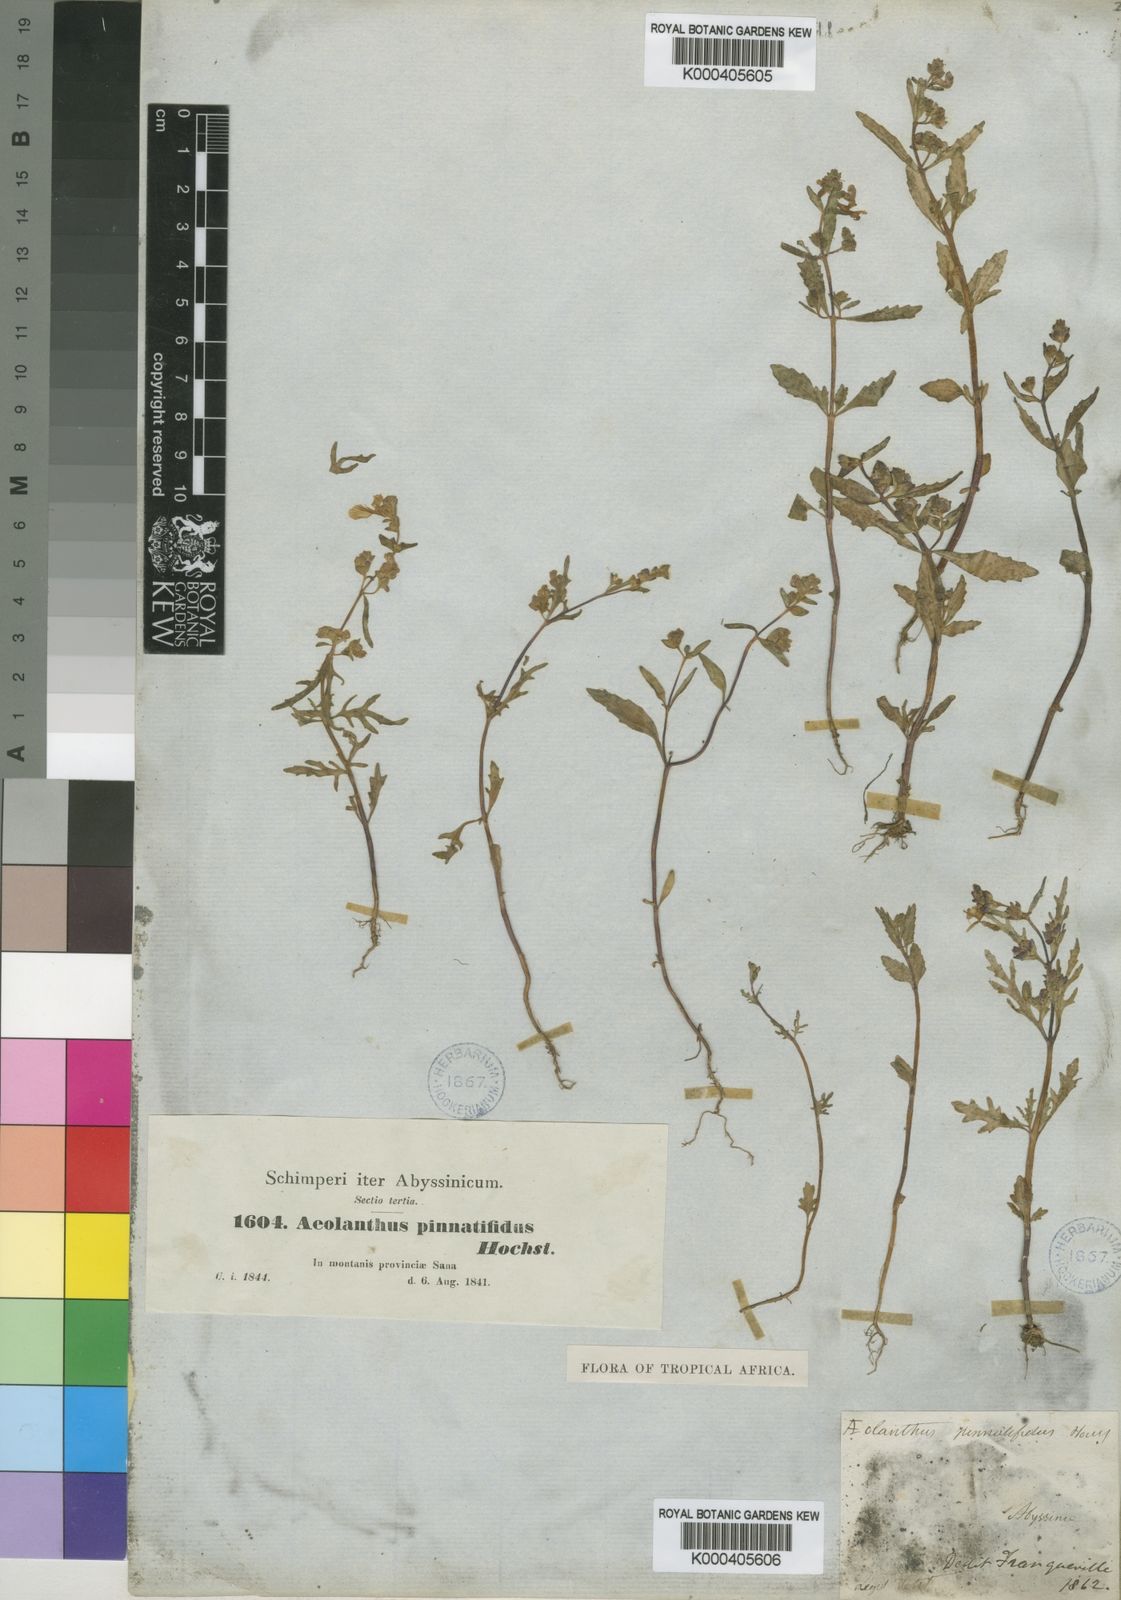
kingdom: Plantae
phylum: Tracheophyta
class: Magnoliopsida
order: Lamiales
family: Lamiaceae
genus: Aeollanthus
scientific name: Aeollanthus pinnatifidus
